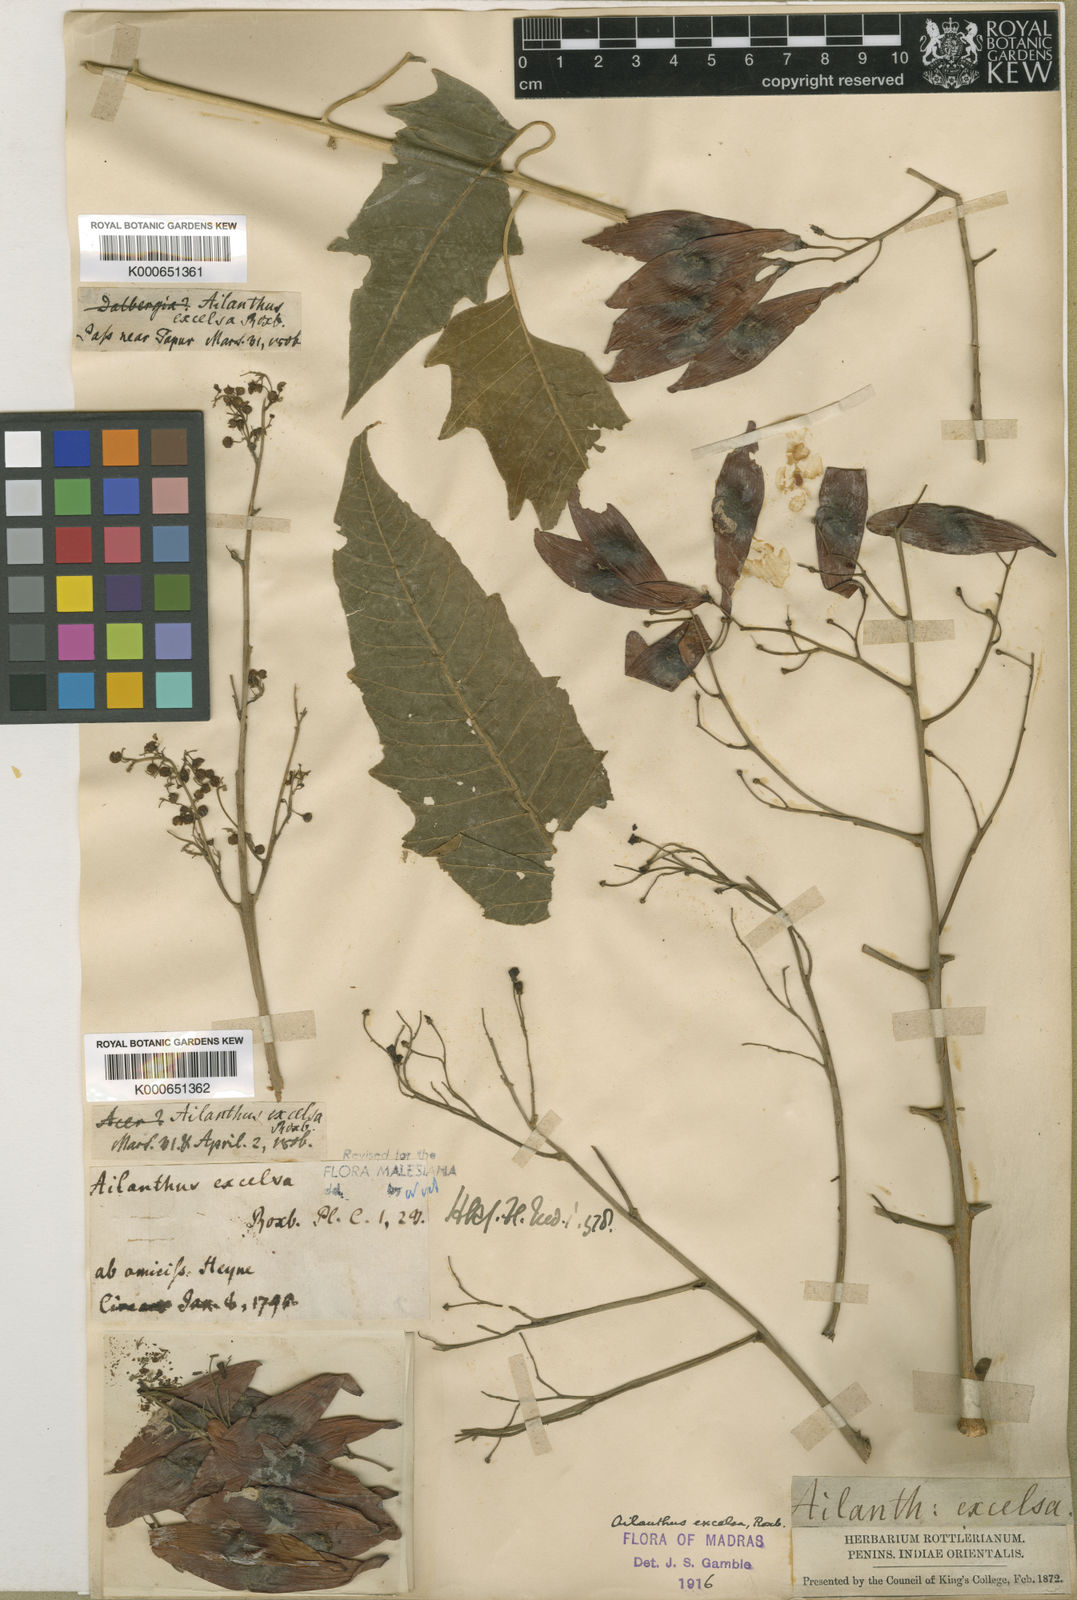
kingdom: Plantae
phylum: Tracheophyta
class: Magnoliopsida
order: Sapindales
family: Simaroubaceae
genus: Ailanthus
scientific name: Ailanthus excelsa
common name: Indian tree-of-heaven
